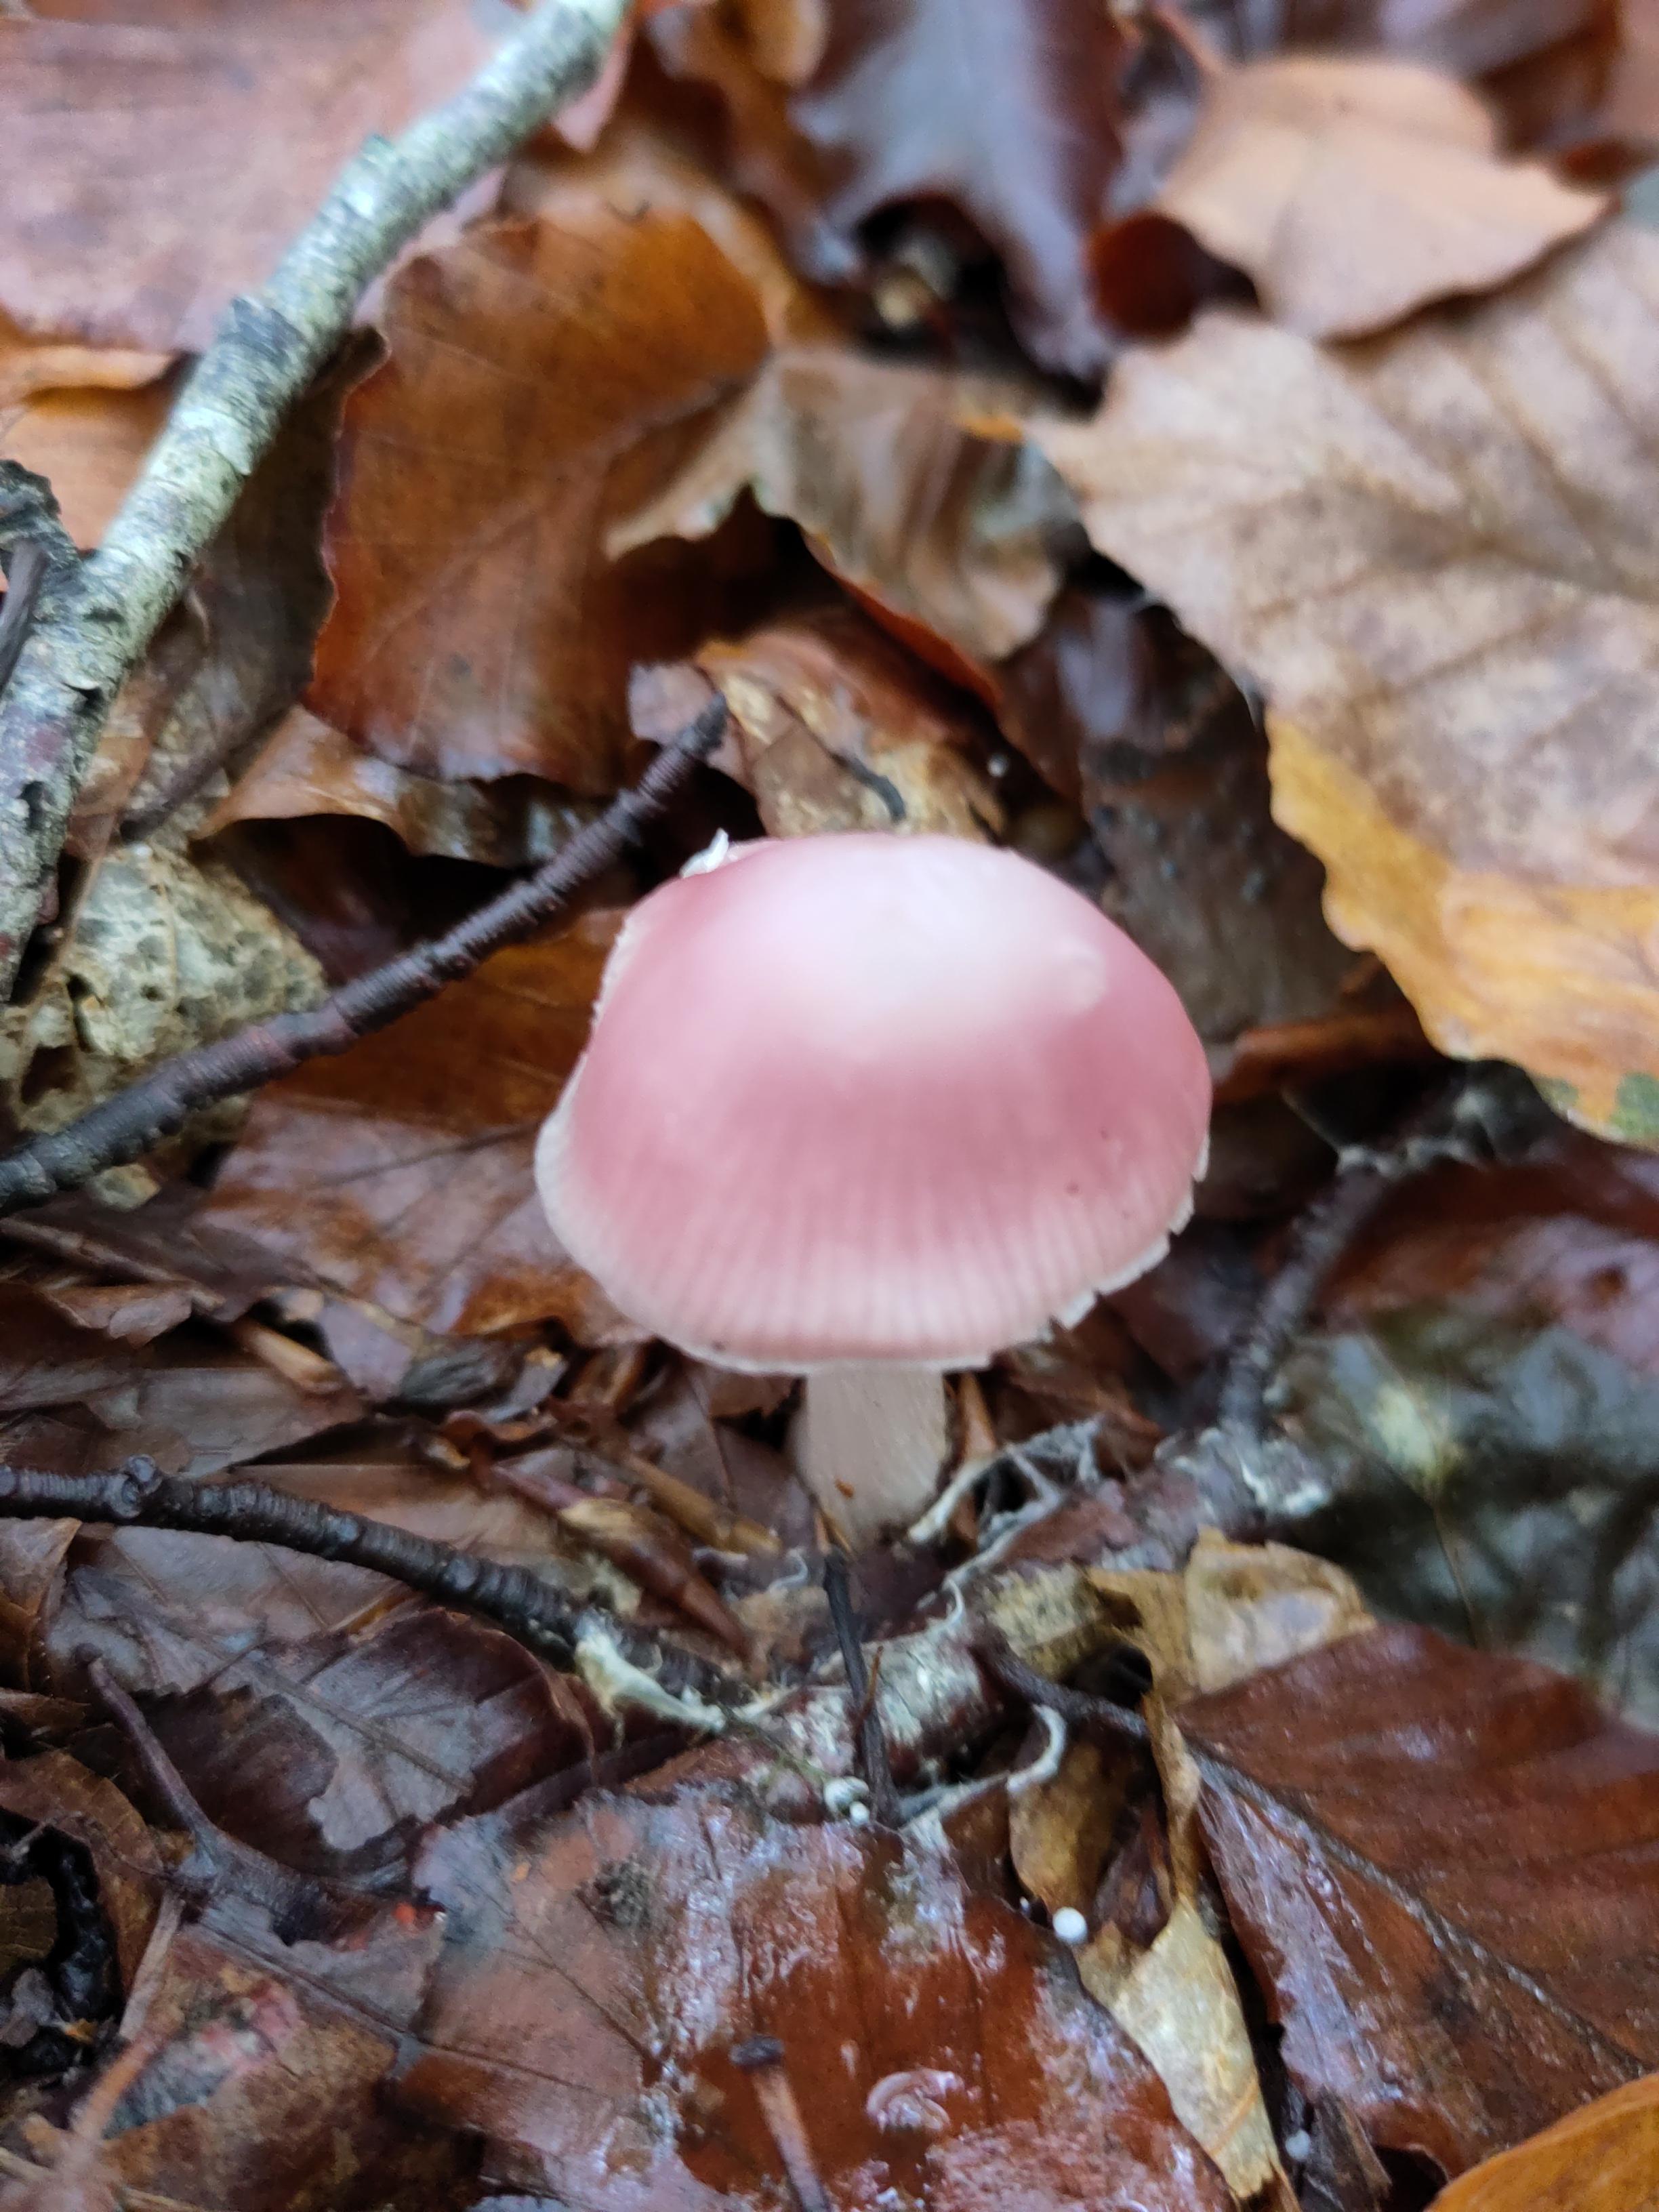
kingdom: Fungi
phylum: Basidiomycota
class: Agaricomycetes
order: Agaricales
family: Mycenaceae
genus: Mycena
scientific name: Mycena rosea
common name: rosa huesvamp
